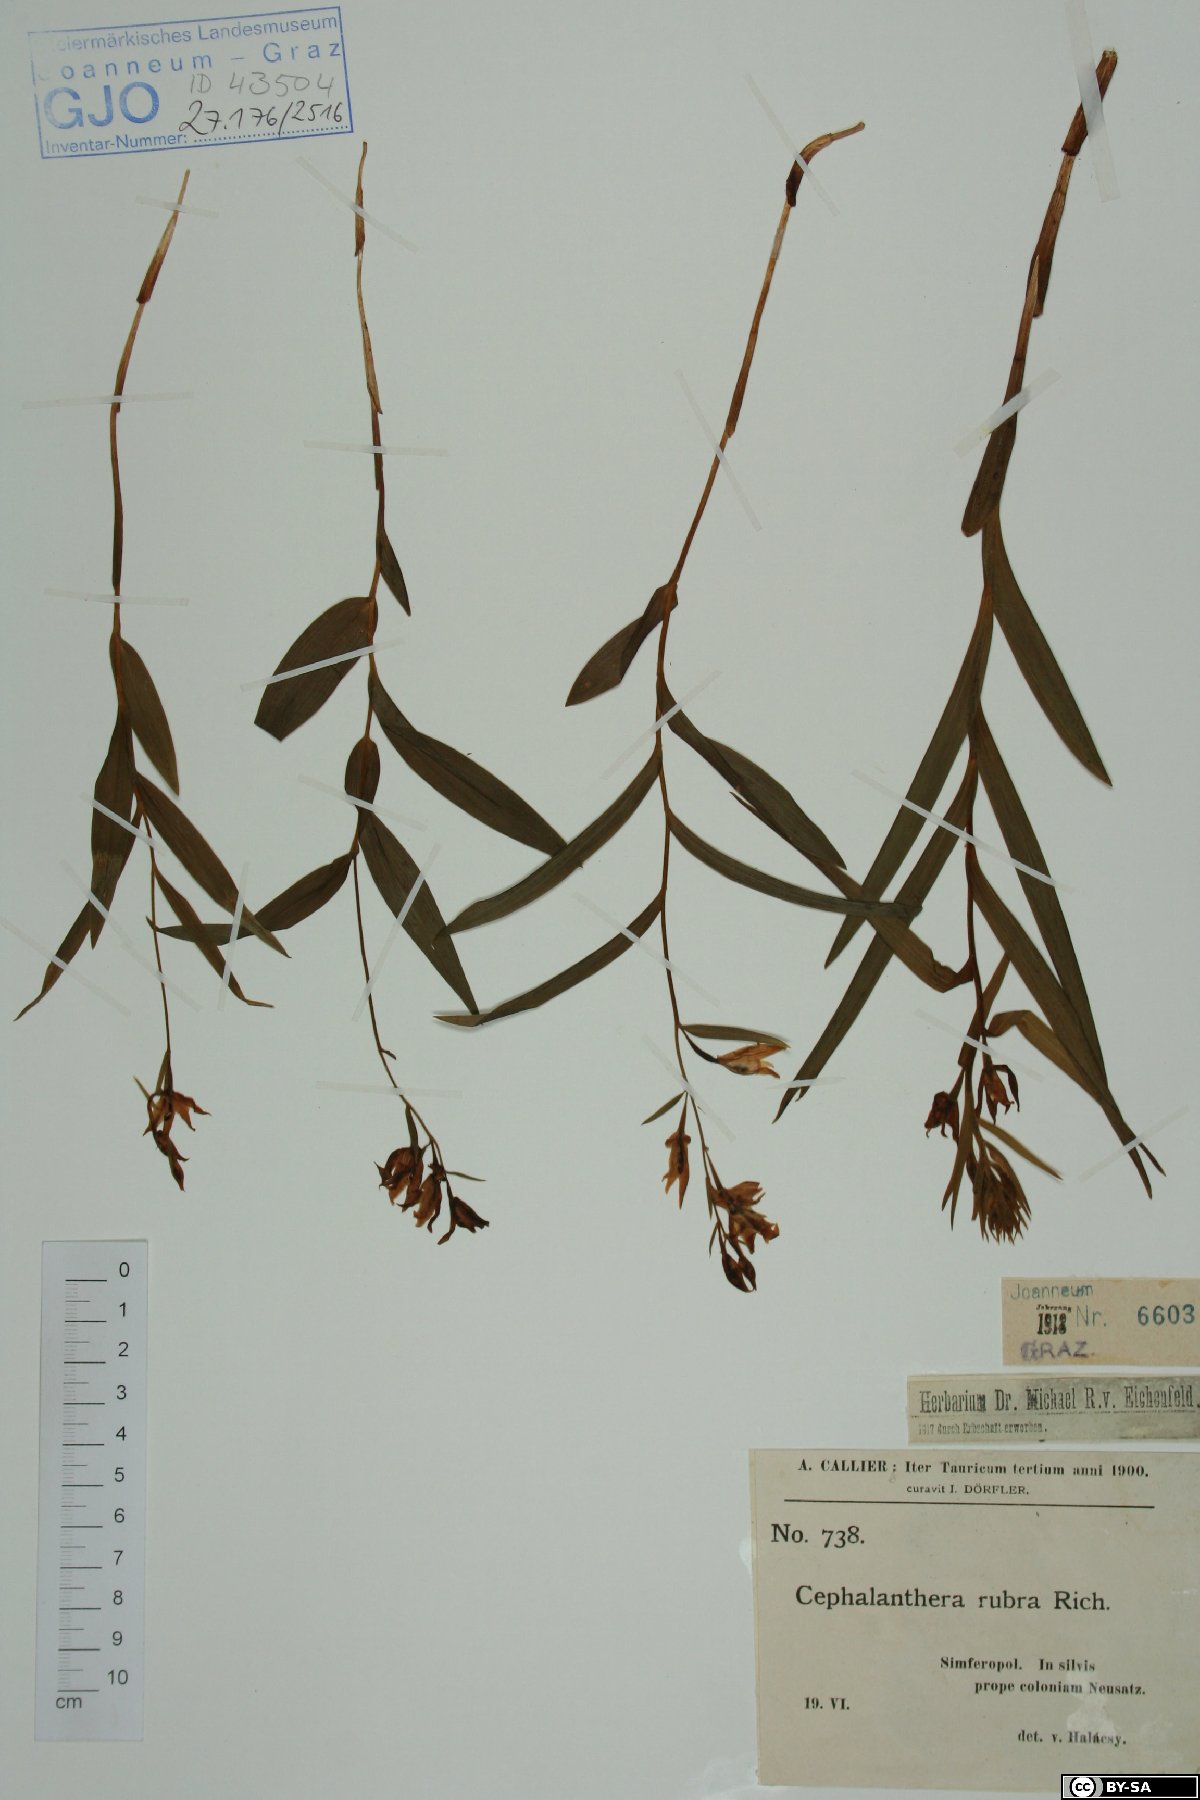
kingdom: Plantae
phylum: Tracheophyta
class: Liliopsida
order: Asparagales
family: Orchidaceae
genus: Cephalanthera
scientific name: Cephalanthera rubra
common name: Red helleborine
